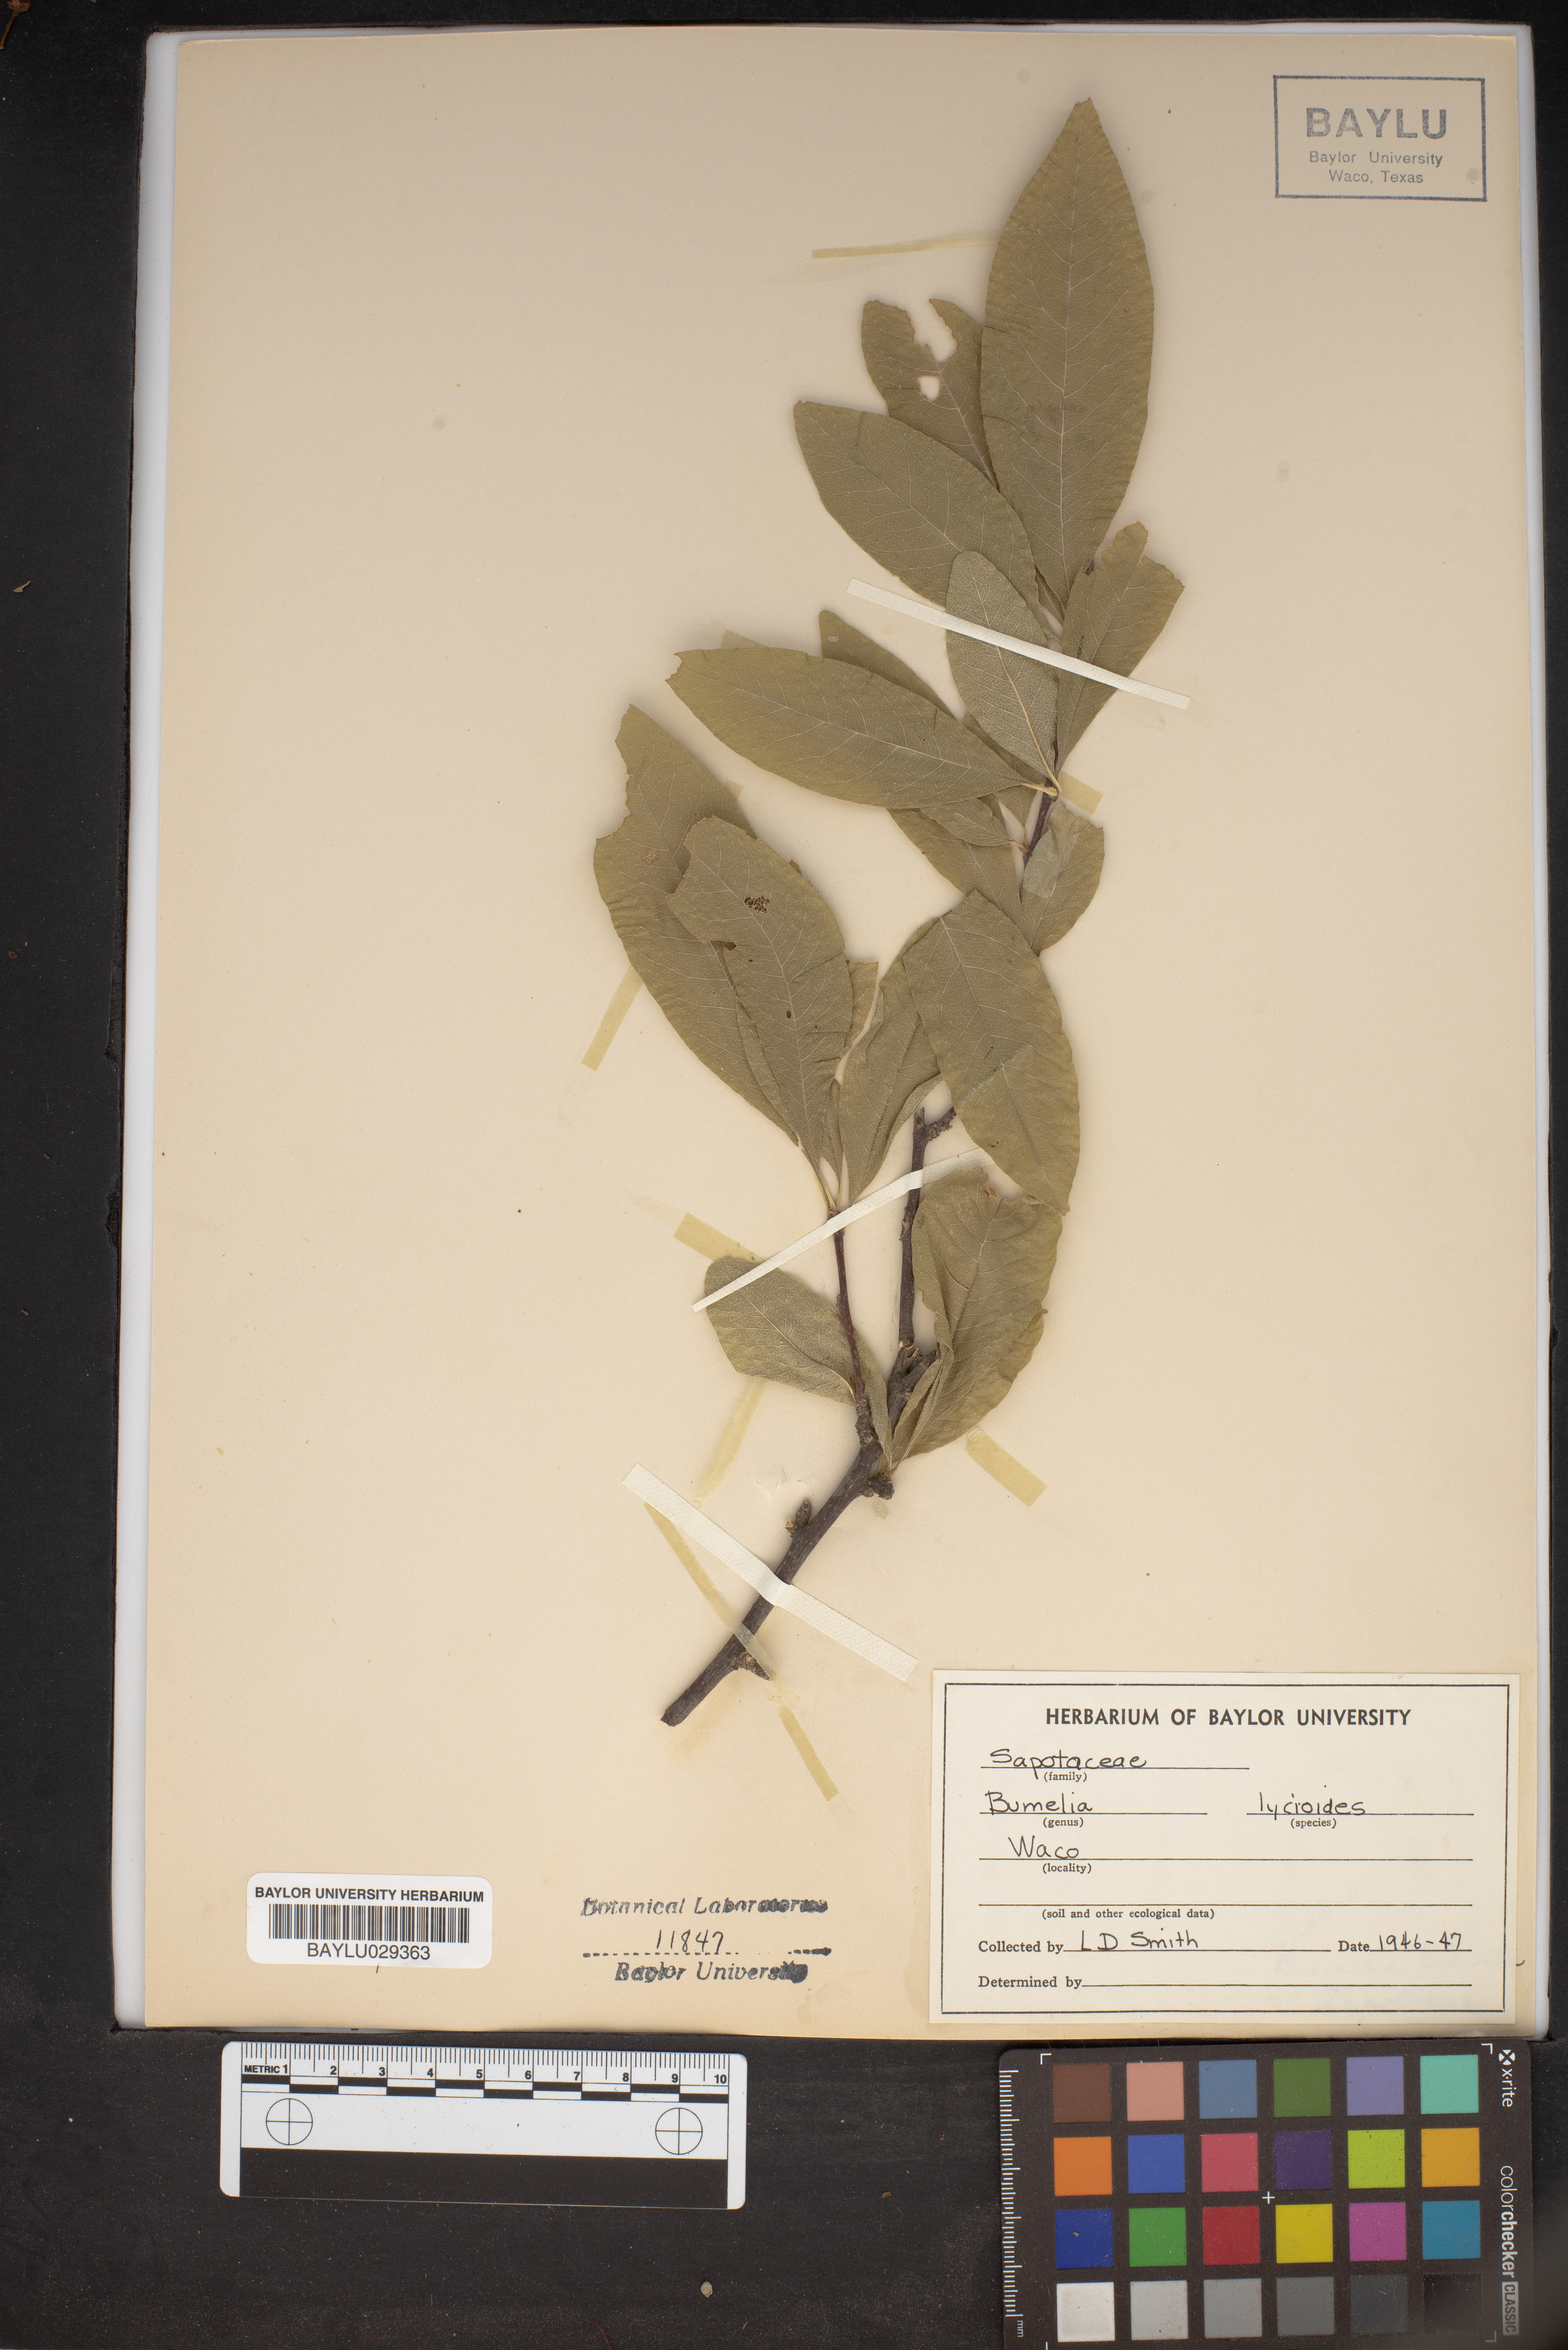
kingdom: Plantae
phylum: Tracheophyta
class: Magnoliopsida
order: Ericales
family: Sapotaceae
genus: Sideroxylon
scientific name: Sideroxylon lycioides
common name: Buckthorn bumelia
